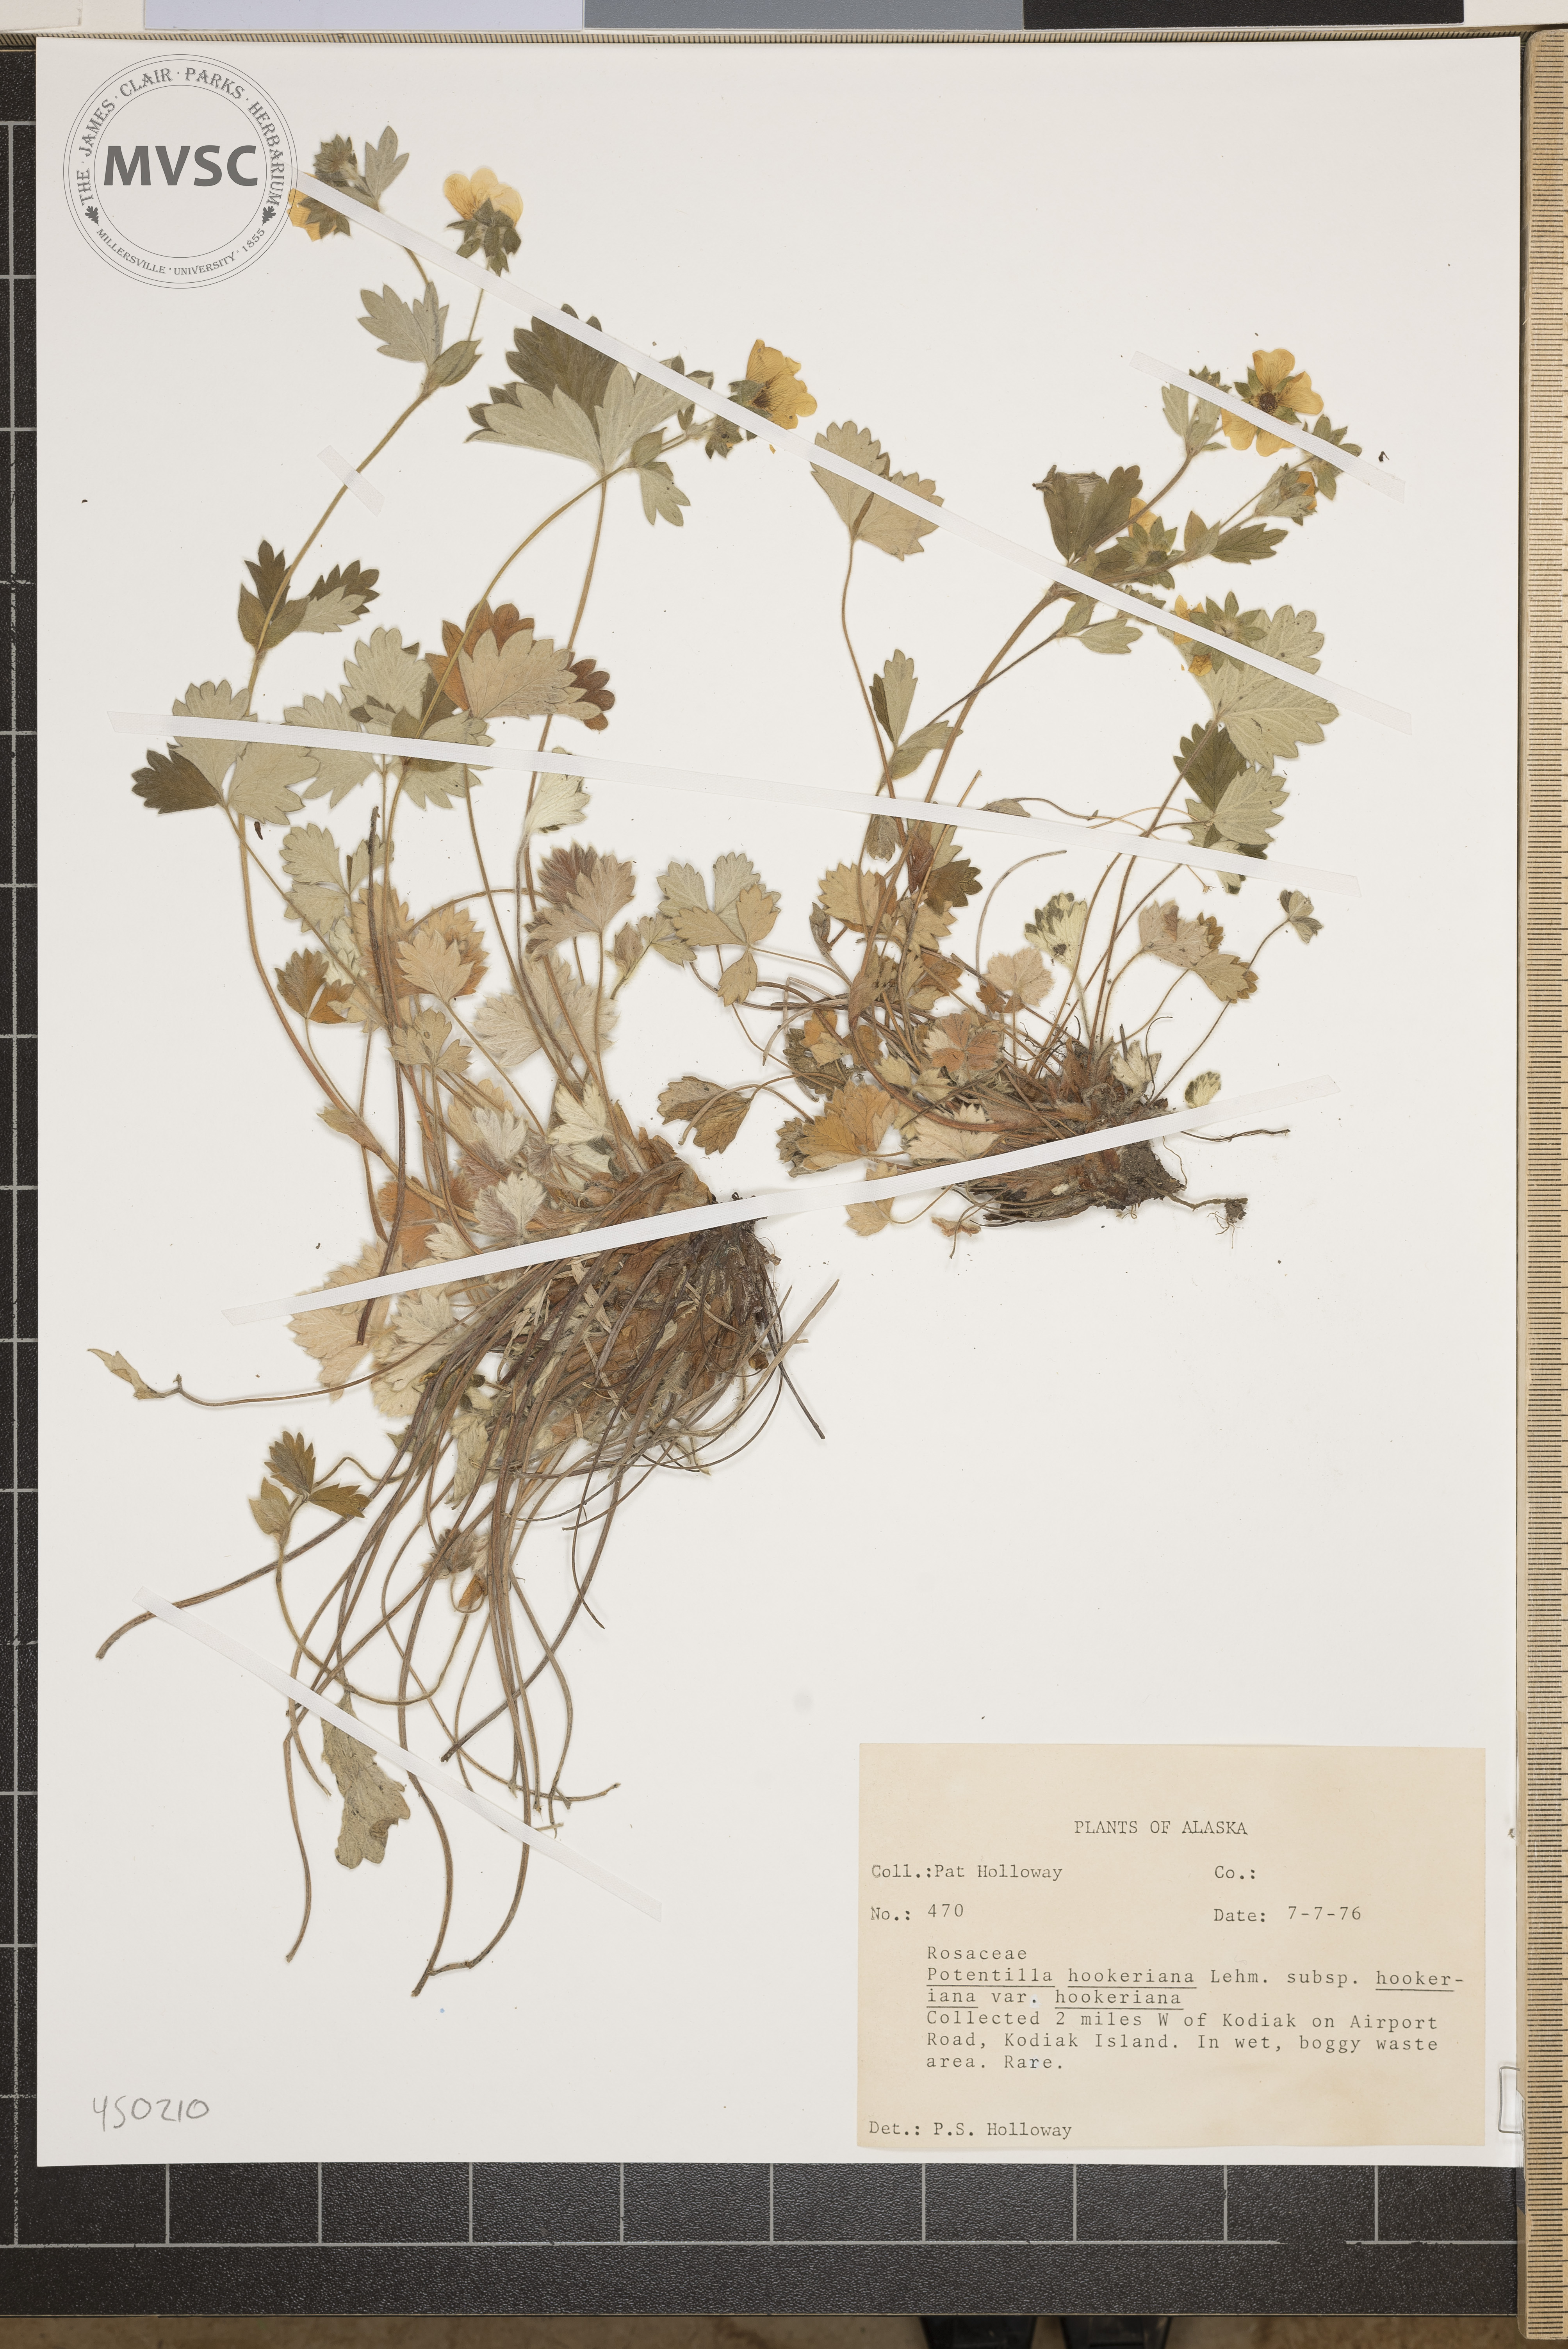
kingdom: Plantae
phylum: Tracheophyta
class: Magnoliopsida
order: Rosales
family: Rosaceae
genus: Potentilla
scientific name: Potentilla hookeriana
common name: Hooker's cinquefoil
